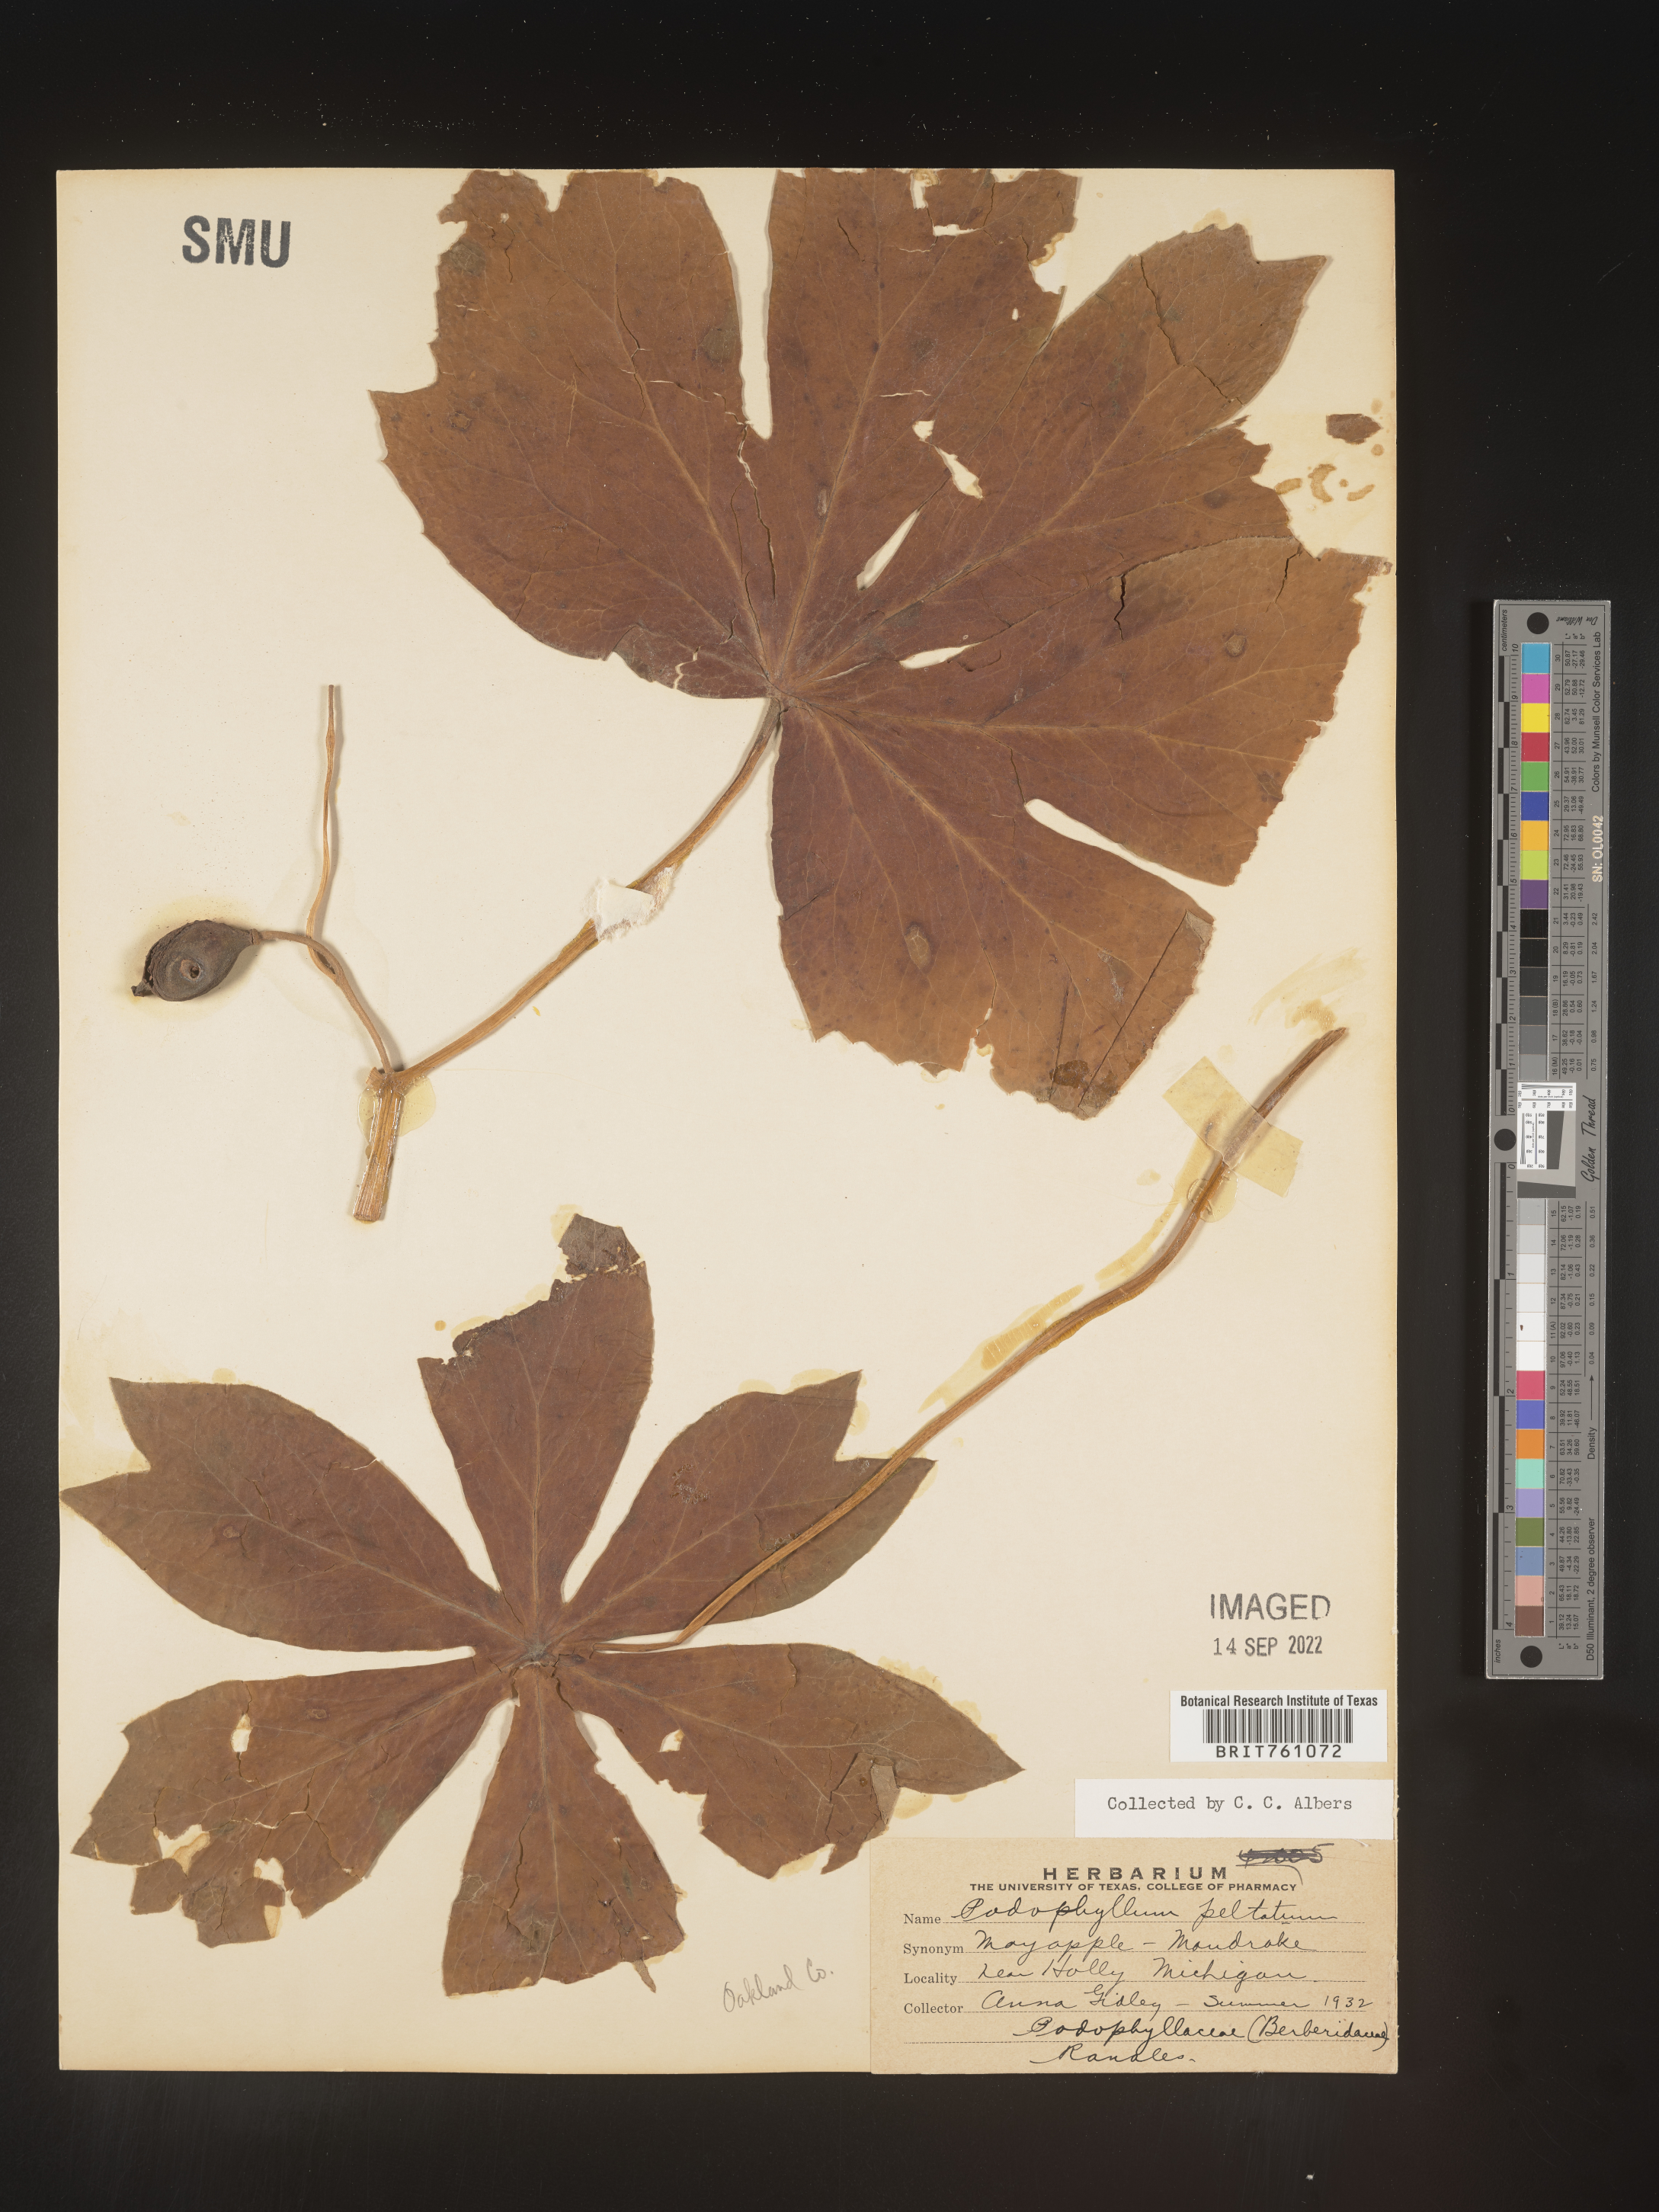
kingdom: Plantae
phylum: Tracheophyta
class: Magnoliopsida
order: Ranunculales
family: Berberidaceae
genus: Podophyllum
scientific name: Podophyllum peltatum
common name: Wild mandrake
